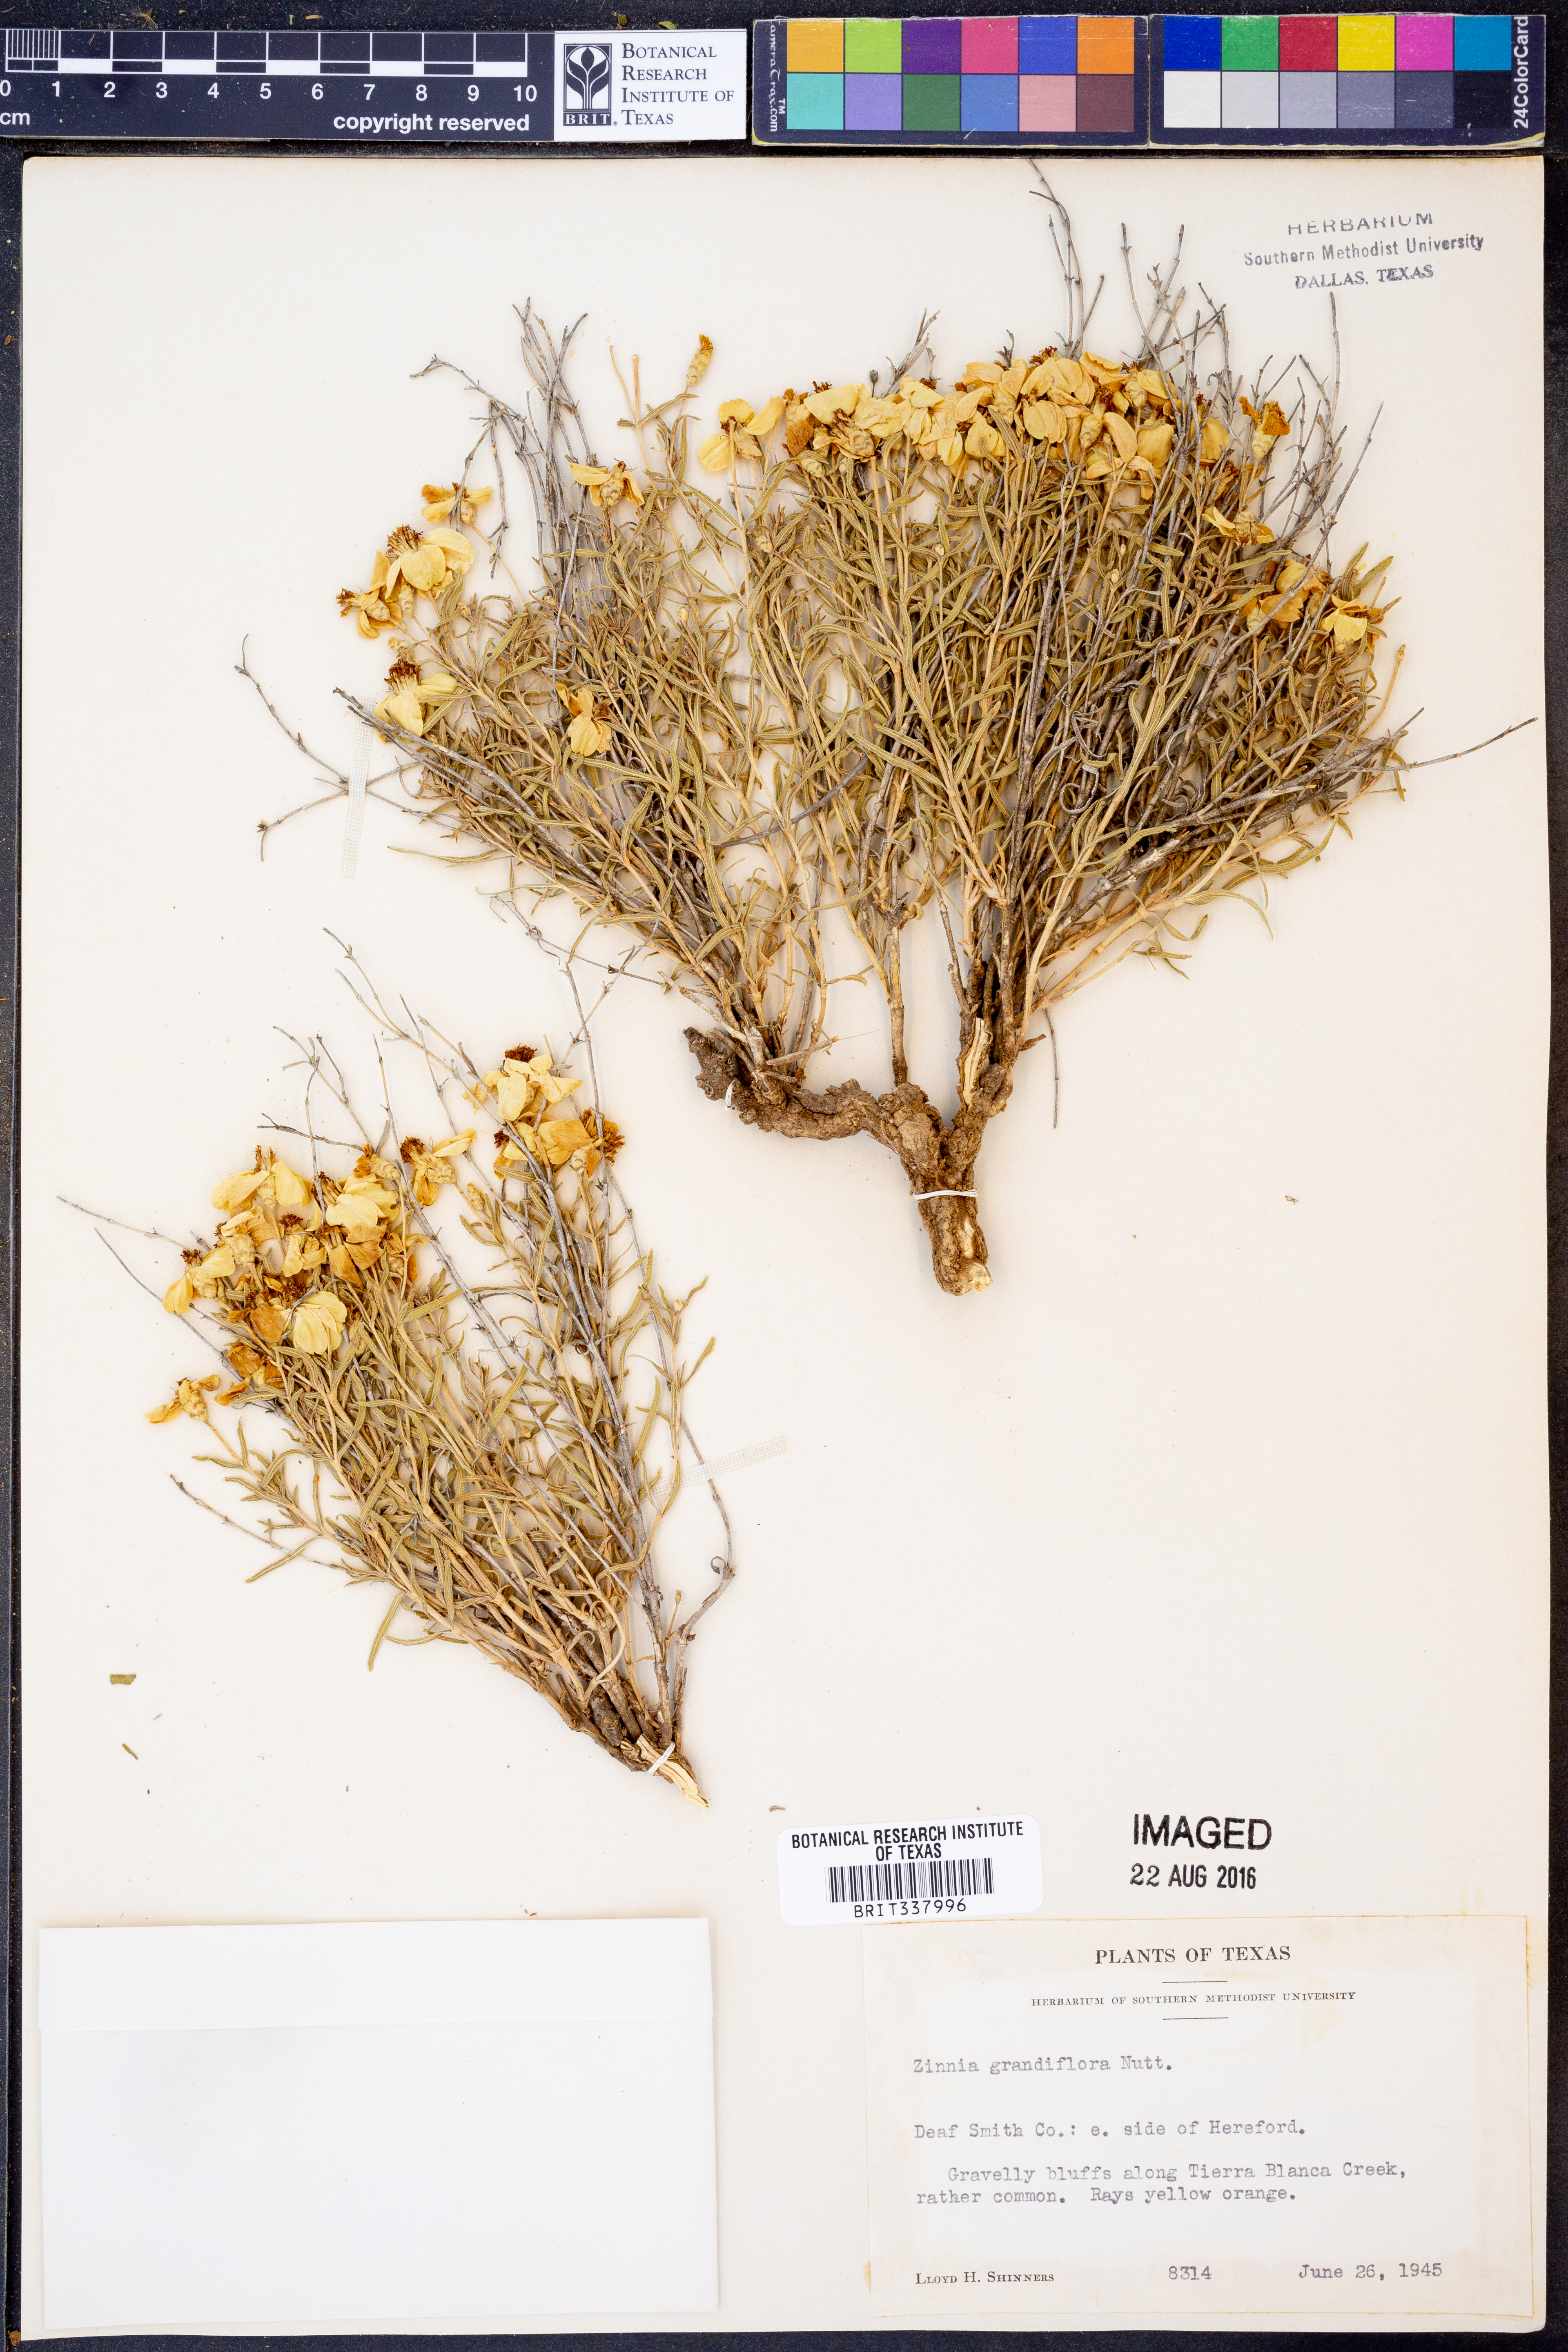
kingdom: Plantae
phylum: Tracheophyta
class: Magnoliopsida
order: Asterales
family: Asteraceae
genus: Zinnia
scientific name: Zinnia grandiflora
